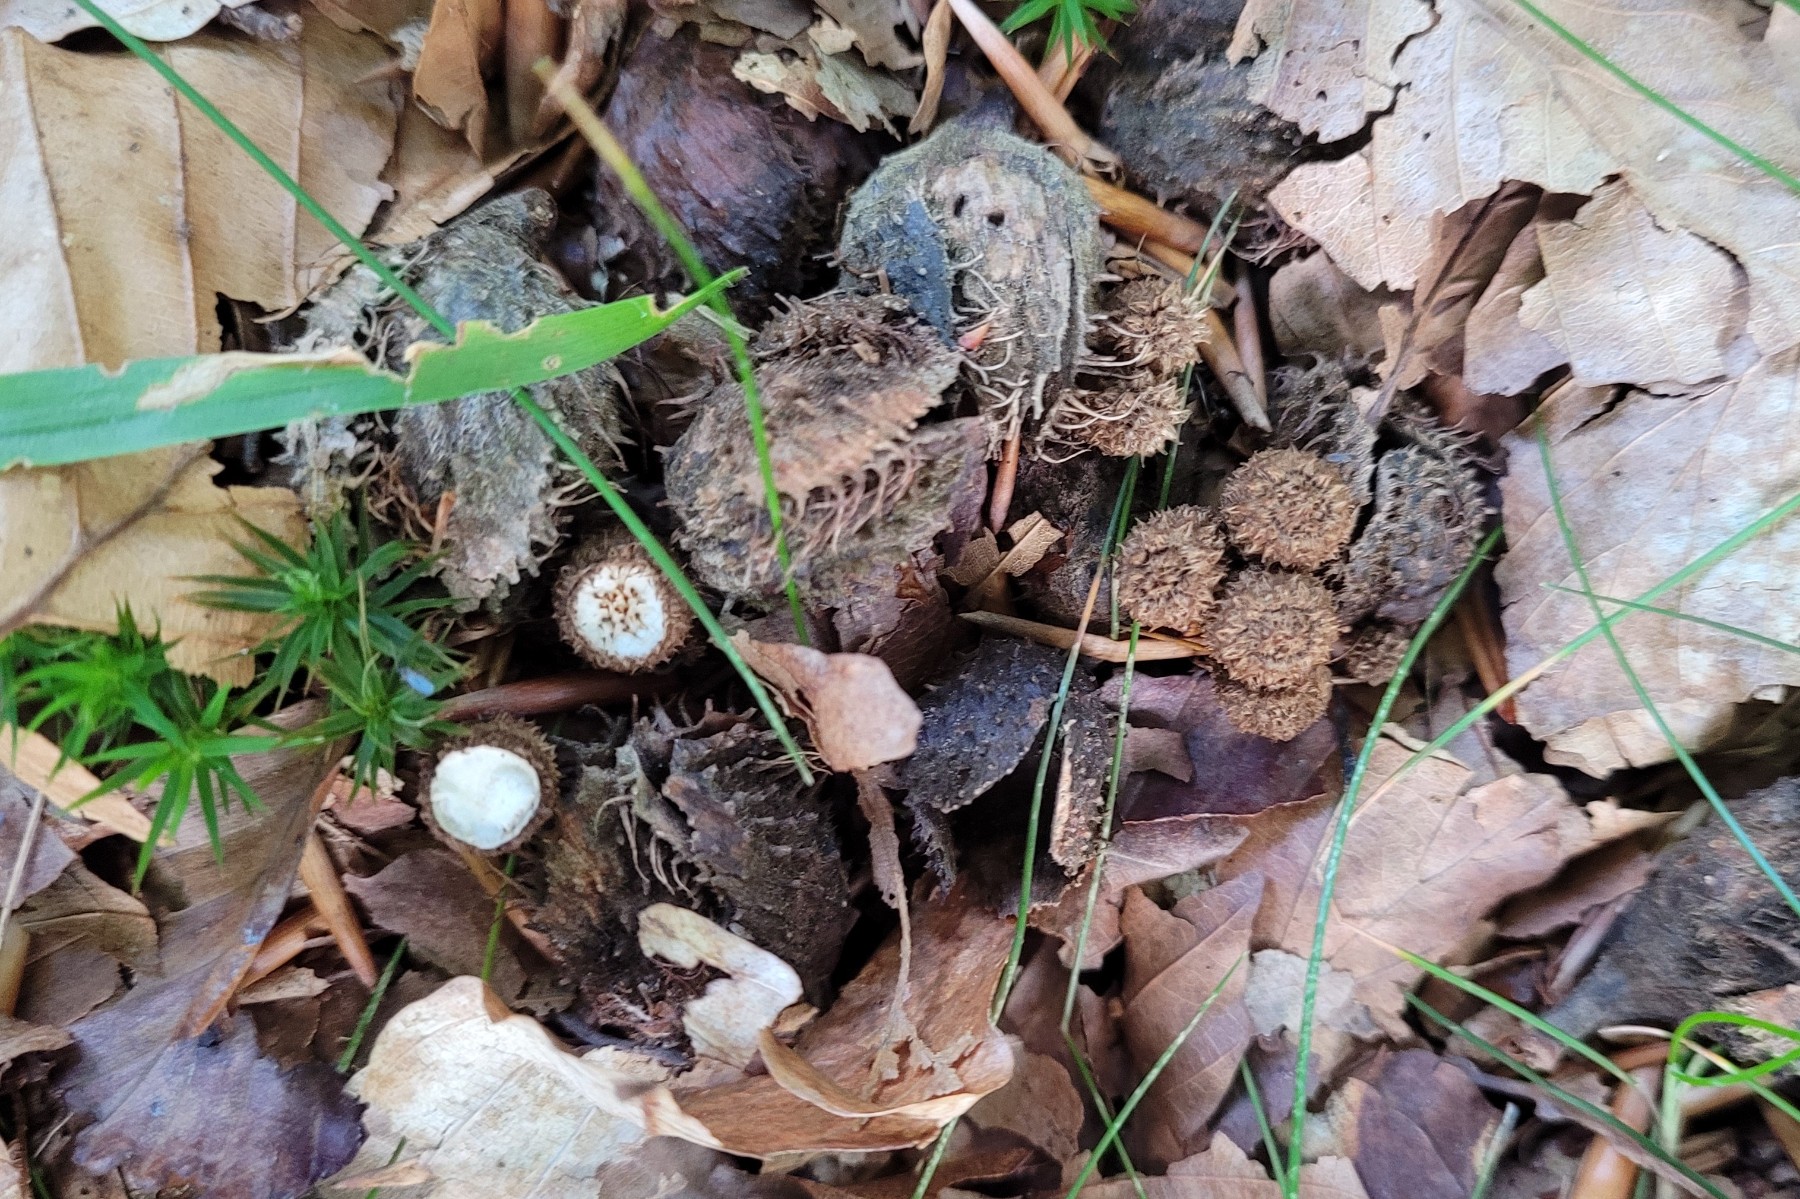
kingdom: Fungi
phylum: Basidiomycota
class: Agaricomycetes
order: Agaricales
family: Agaricaceae
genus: Cyathus
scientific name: Cyathus striatus
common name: stribet redesvamp
